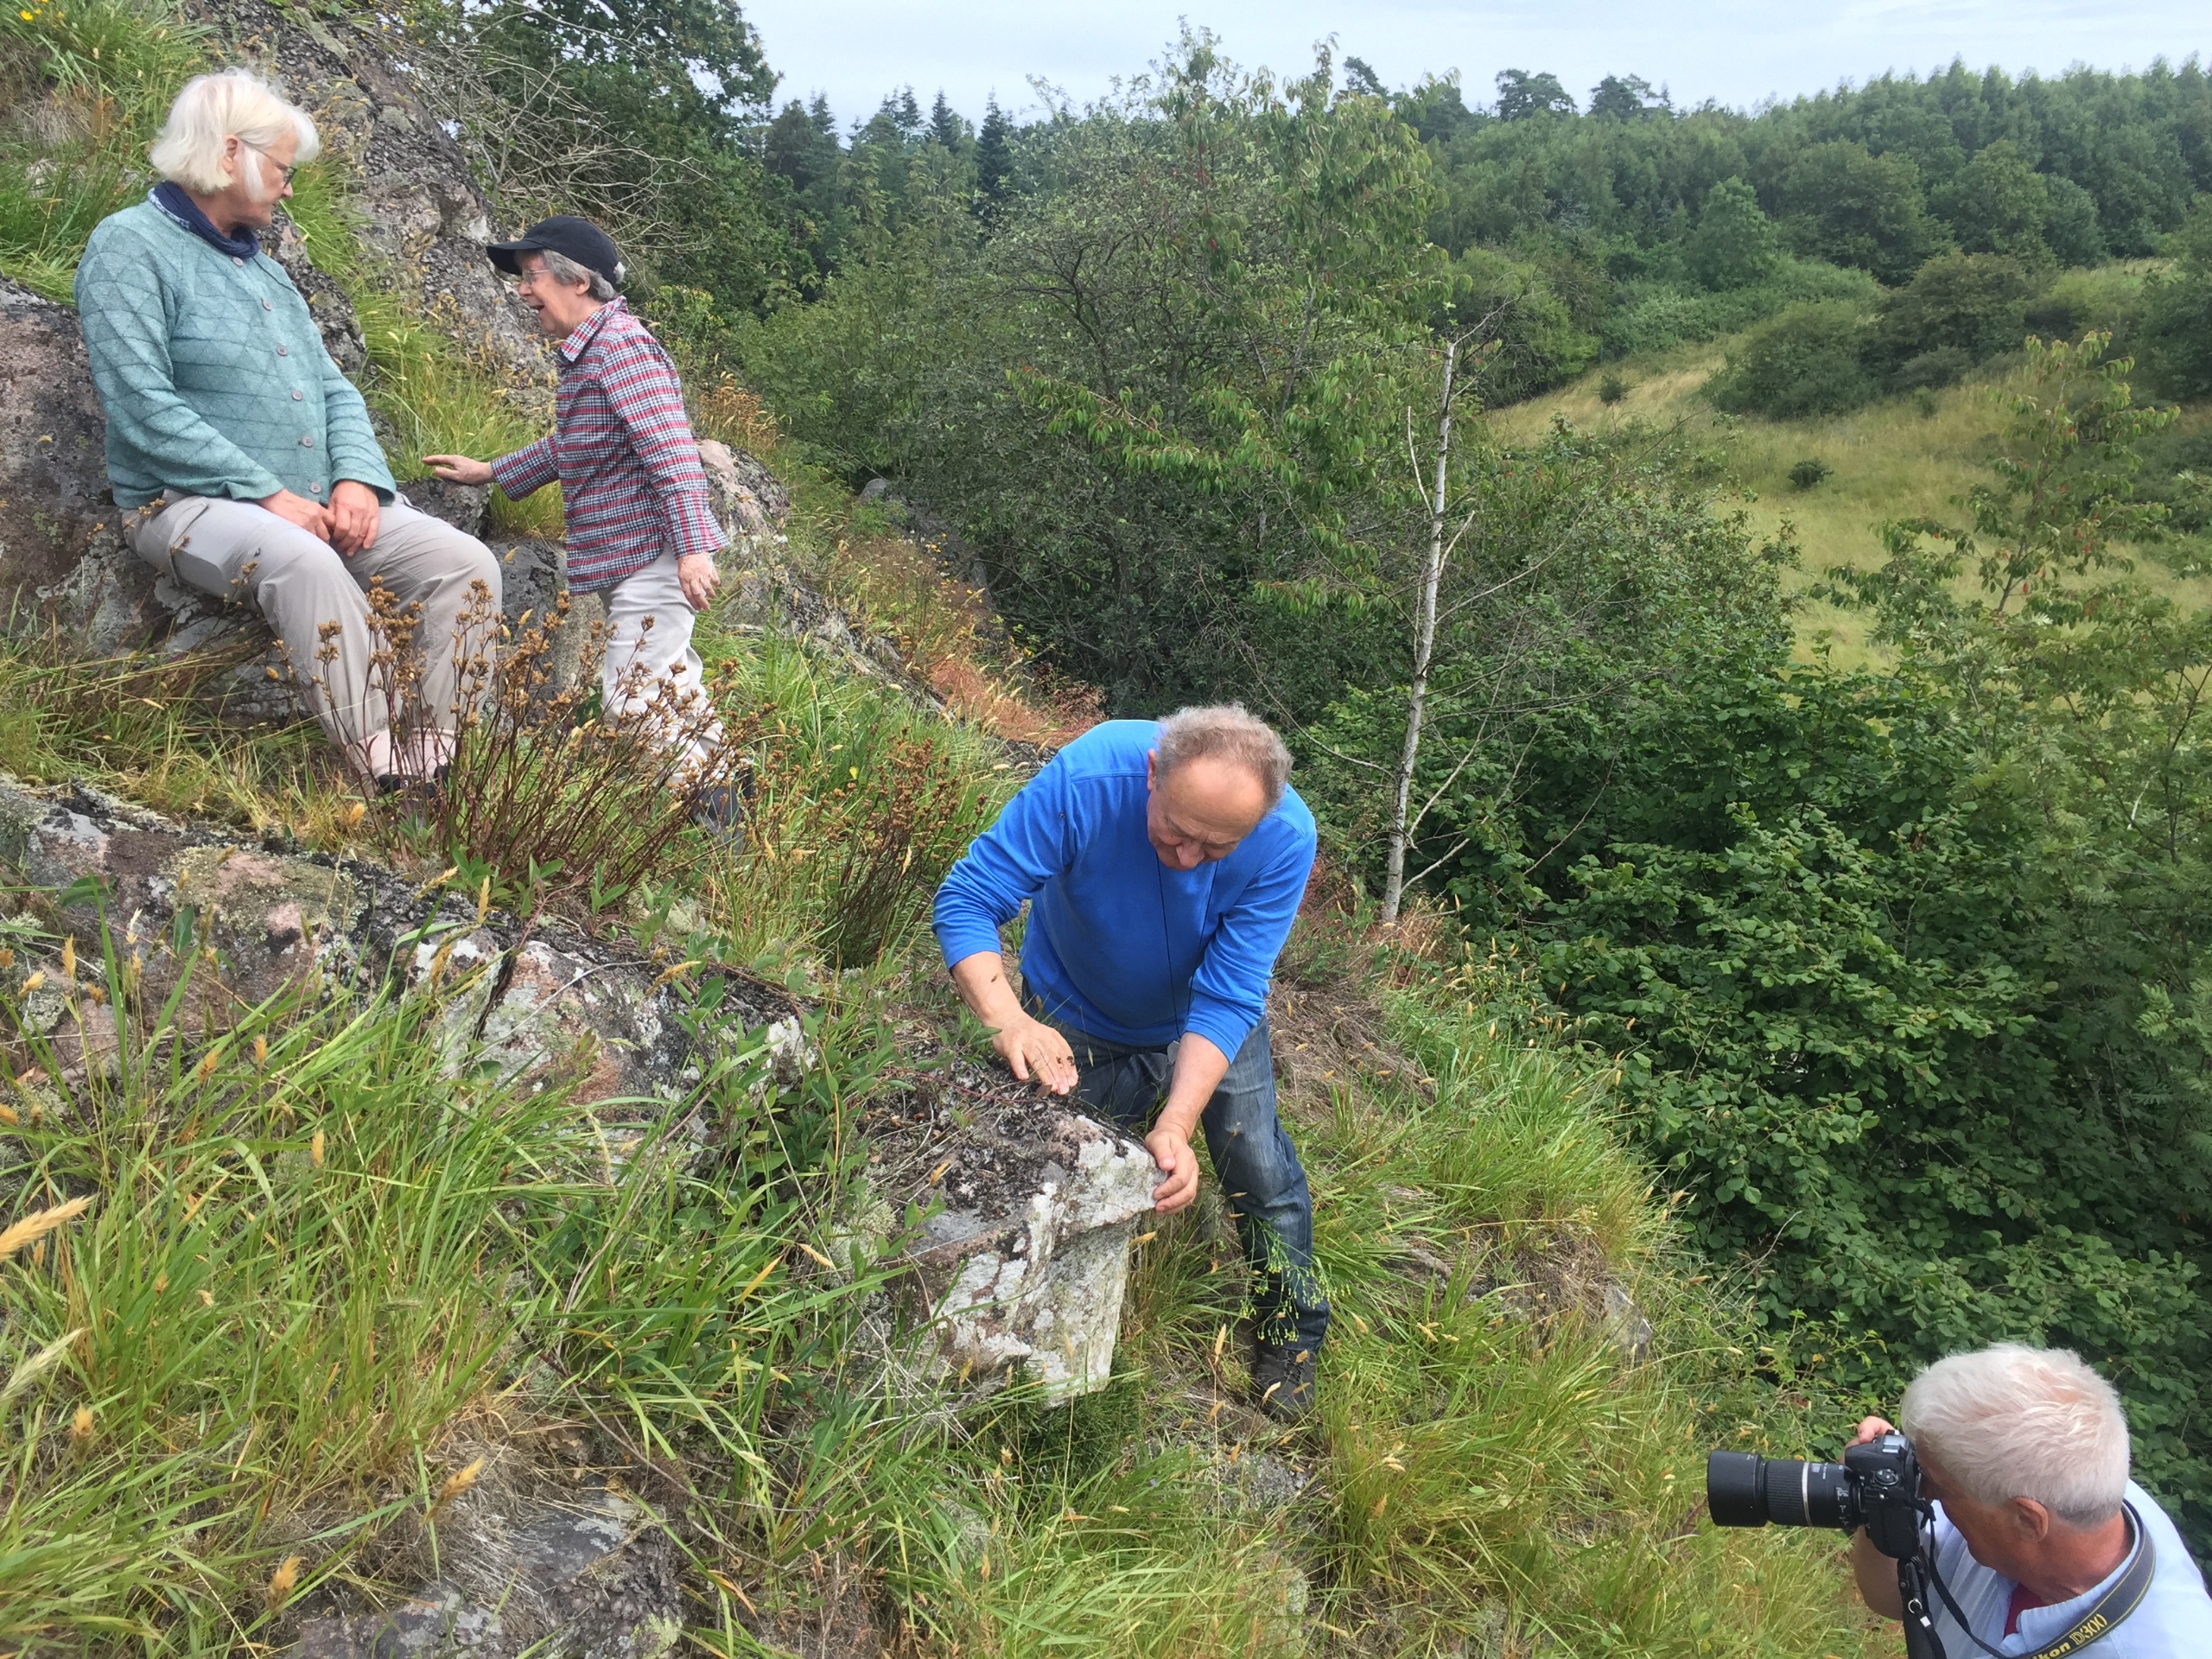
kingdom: Plantae
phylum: Tracheophyta
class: Polypodiopsida
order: Polypodiales
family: Aspleniaceae
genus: Asplenium
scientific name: Asplenium septentrionale
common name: Nordisk radeløv
